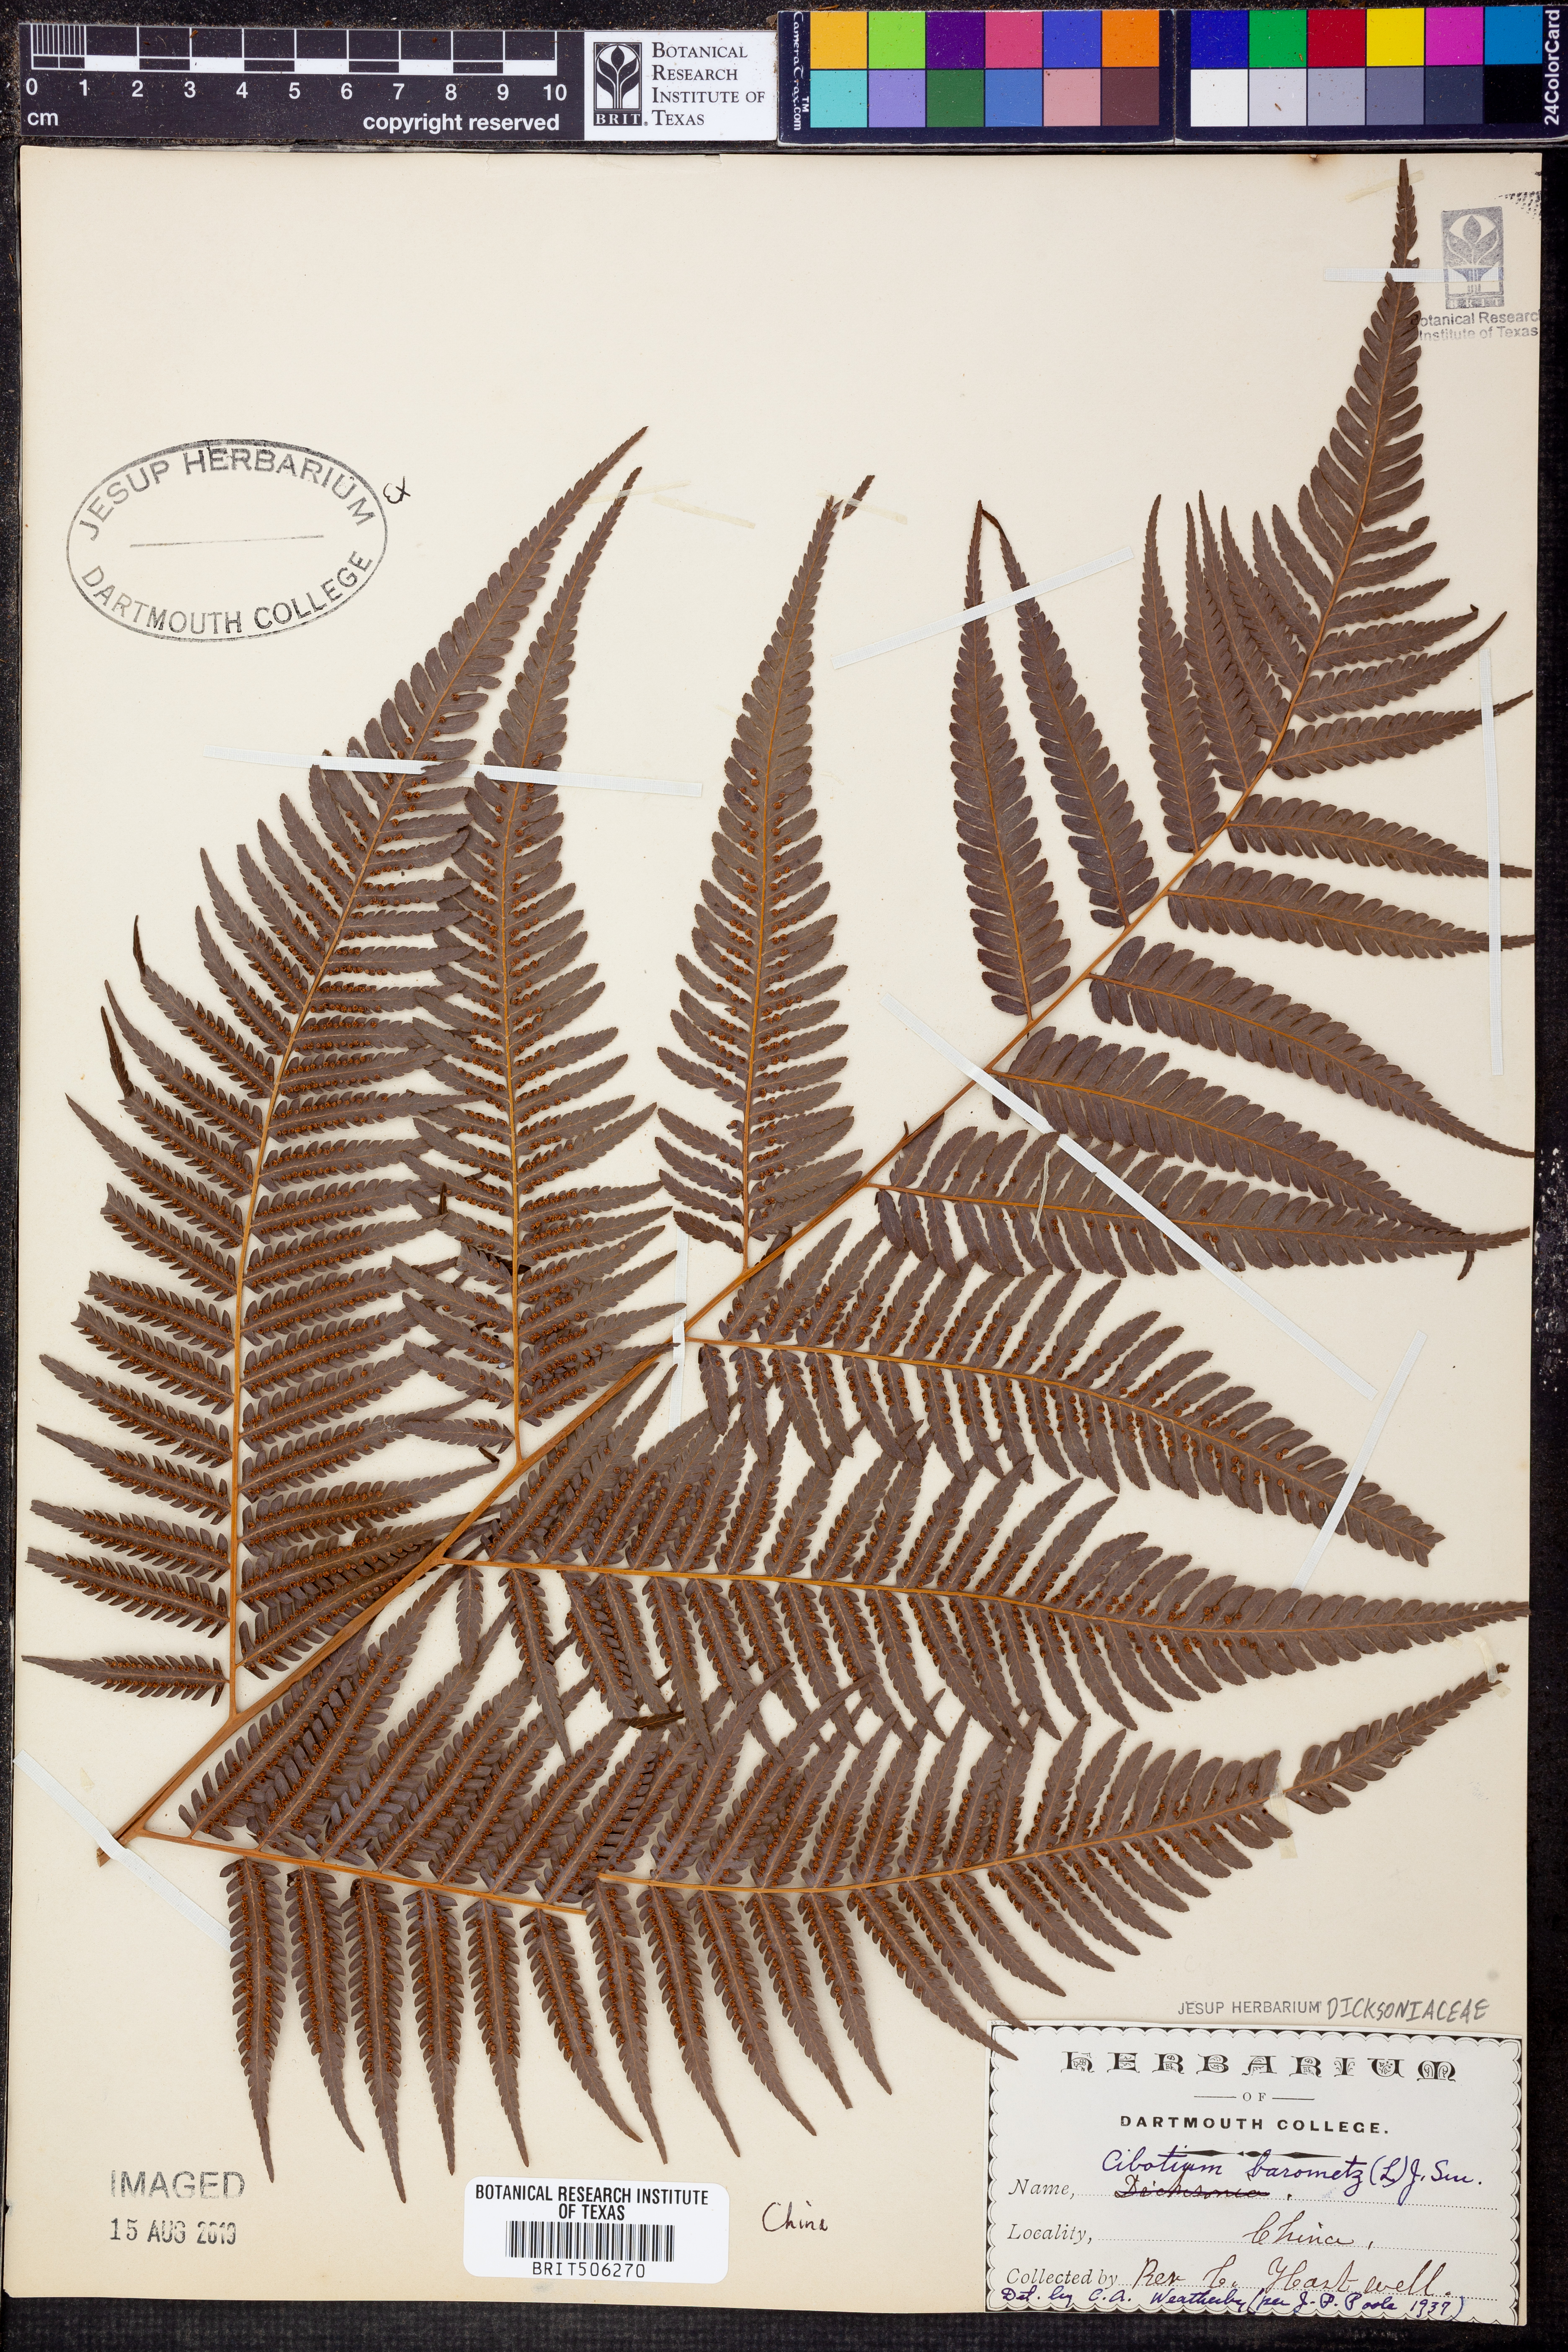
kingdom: Plantae
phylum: Tracheophyta
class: Polypodiopsida
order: Cyatheales
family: Cibotiaceae
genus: Cibotium
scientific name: Cibotium barometz
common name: Scythian-lamb
